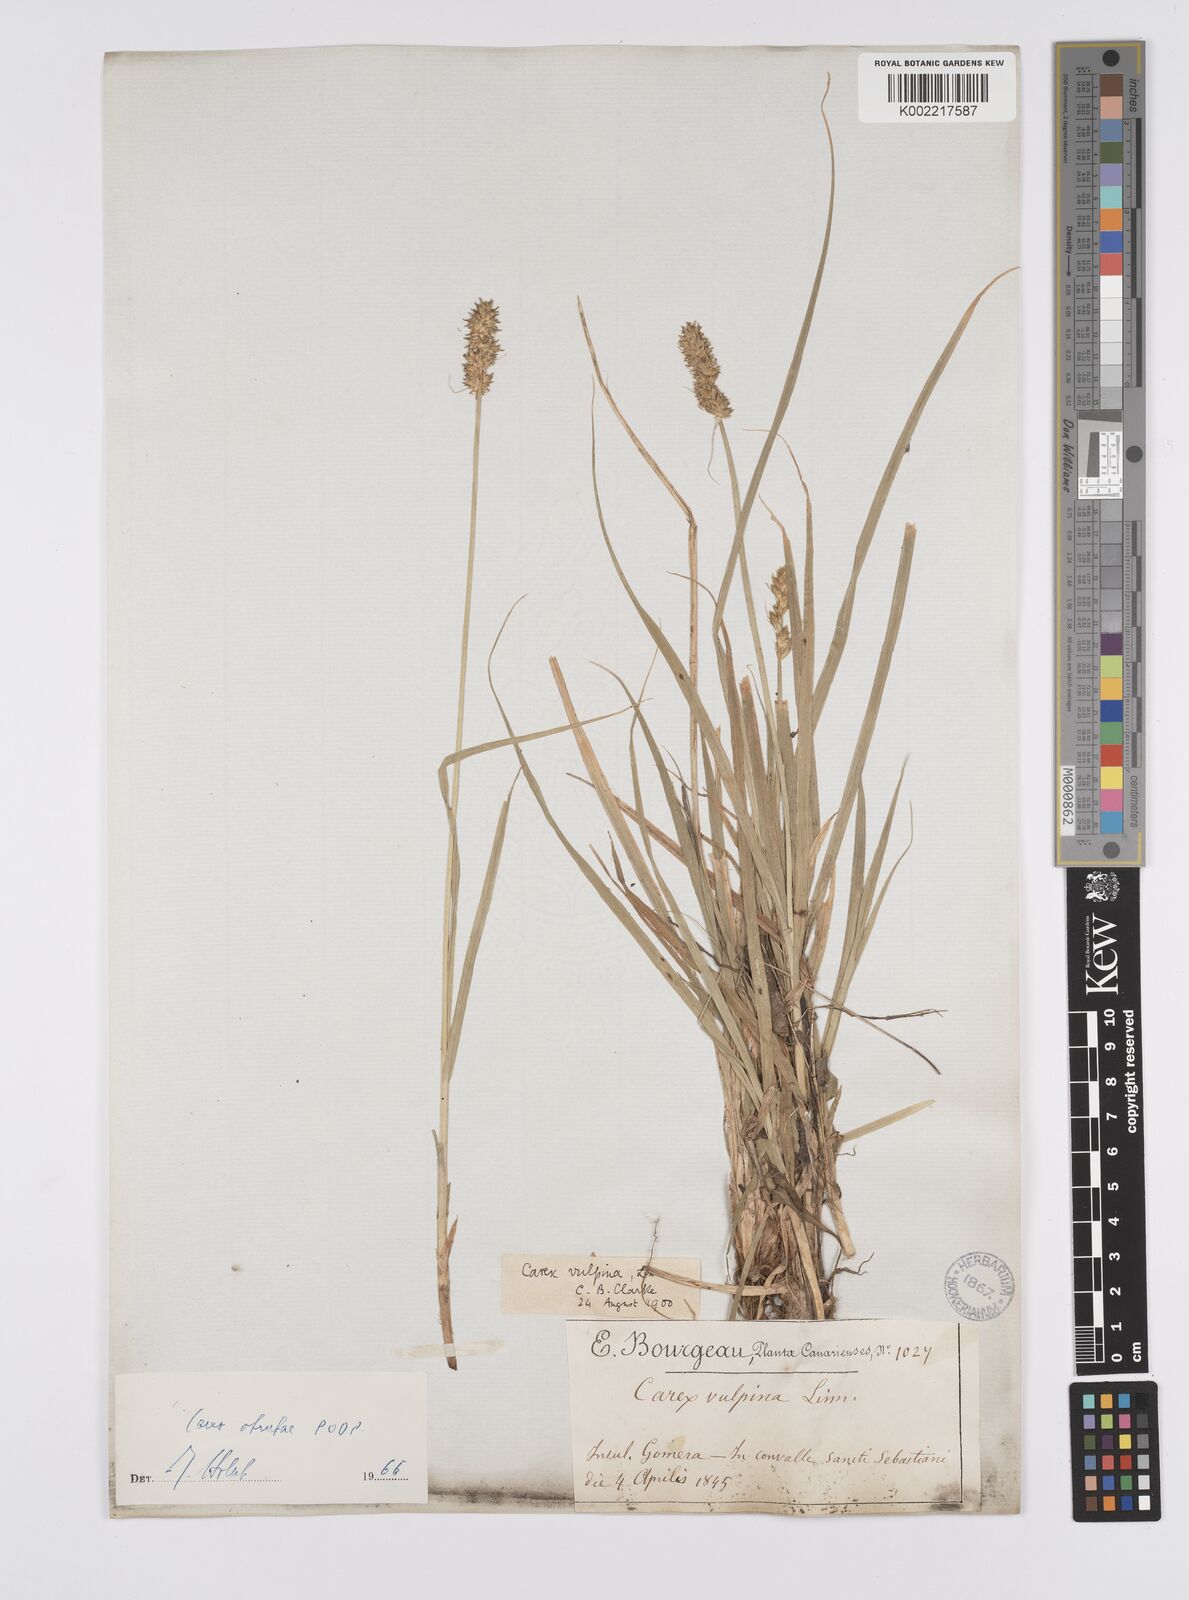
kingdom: Plantae
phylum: Tracheophyta
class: Liliopsida
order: Poales
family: Cyperaceae
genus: Carex
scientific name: Carex vulpina
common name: True fox-sedge
